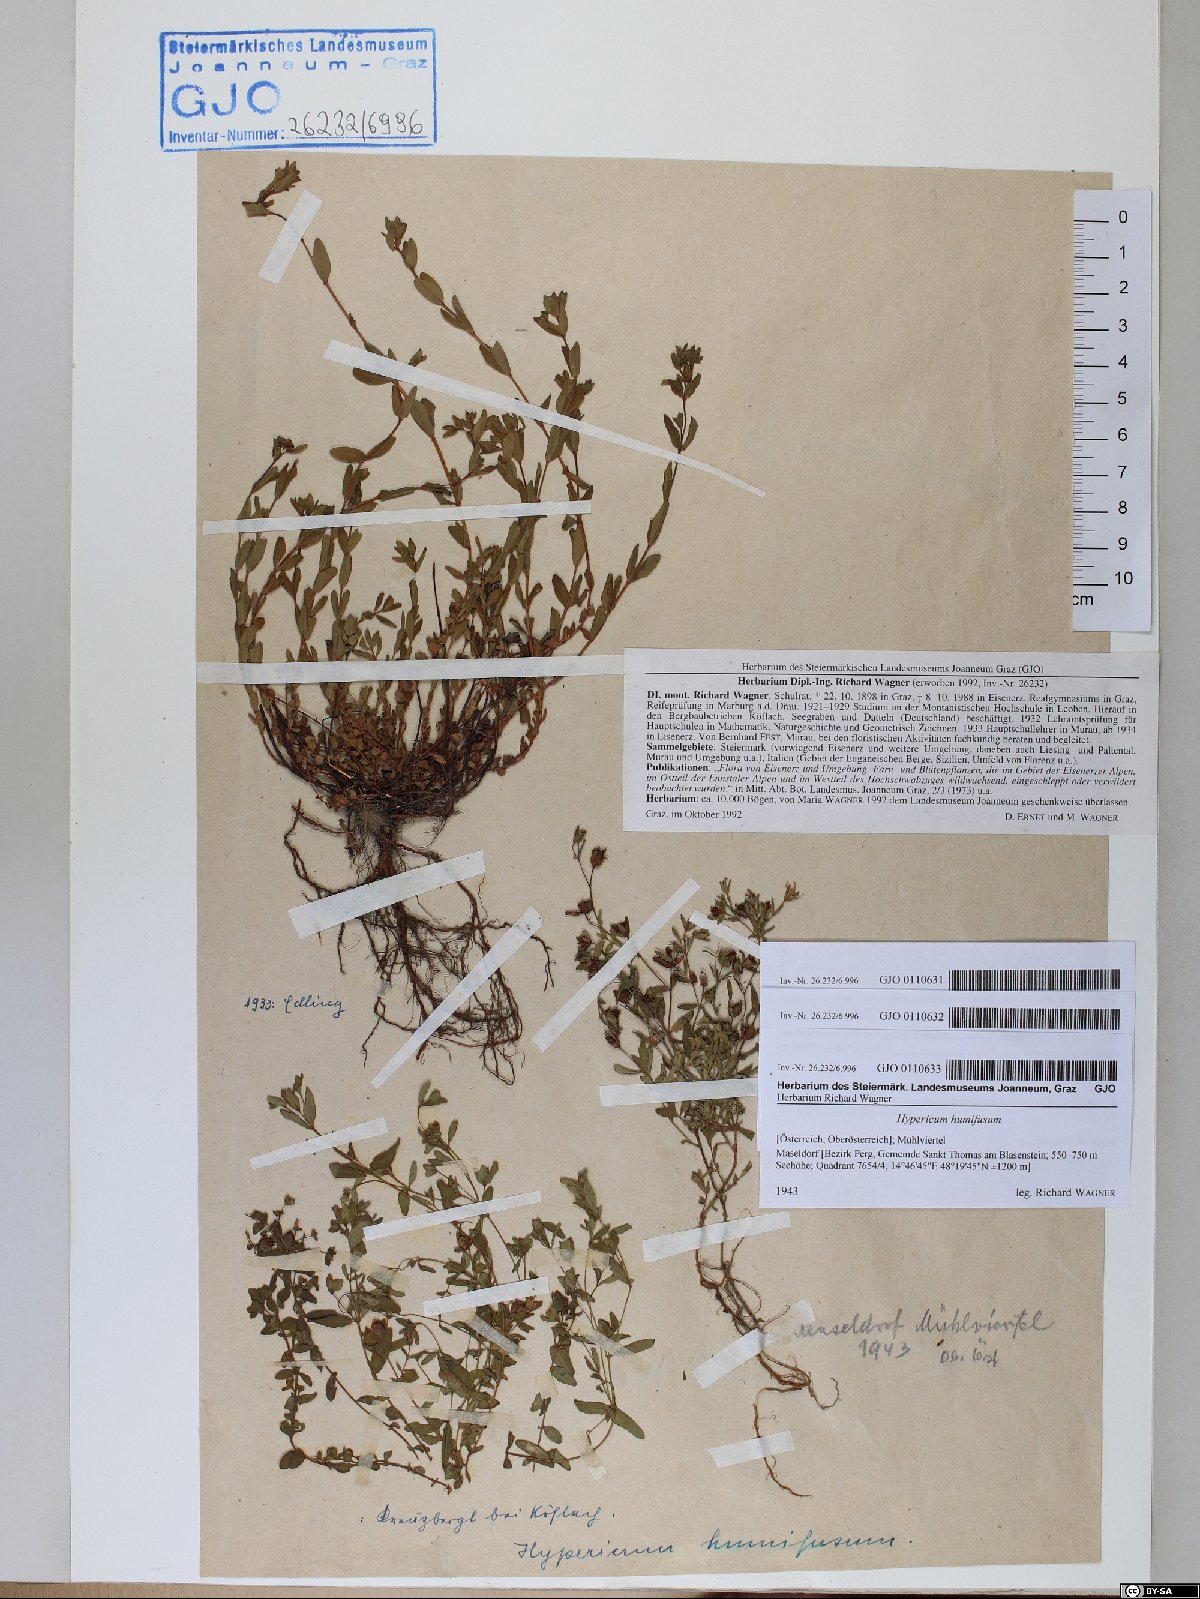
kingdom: Plantae
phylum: Tracheophyta
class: Magnoliopsida
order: Malpighiales
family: Hypericaceae
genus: Hypericum
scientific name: Hypericum humifusum
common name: Trailing st. john's-wort
